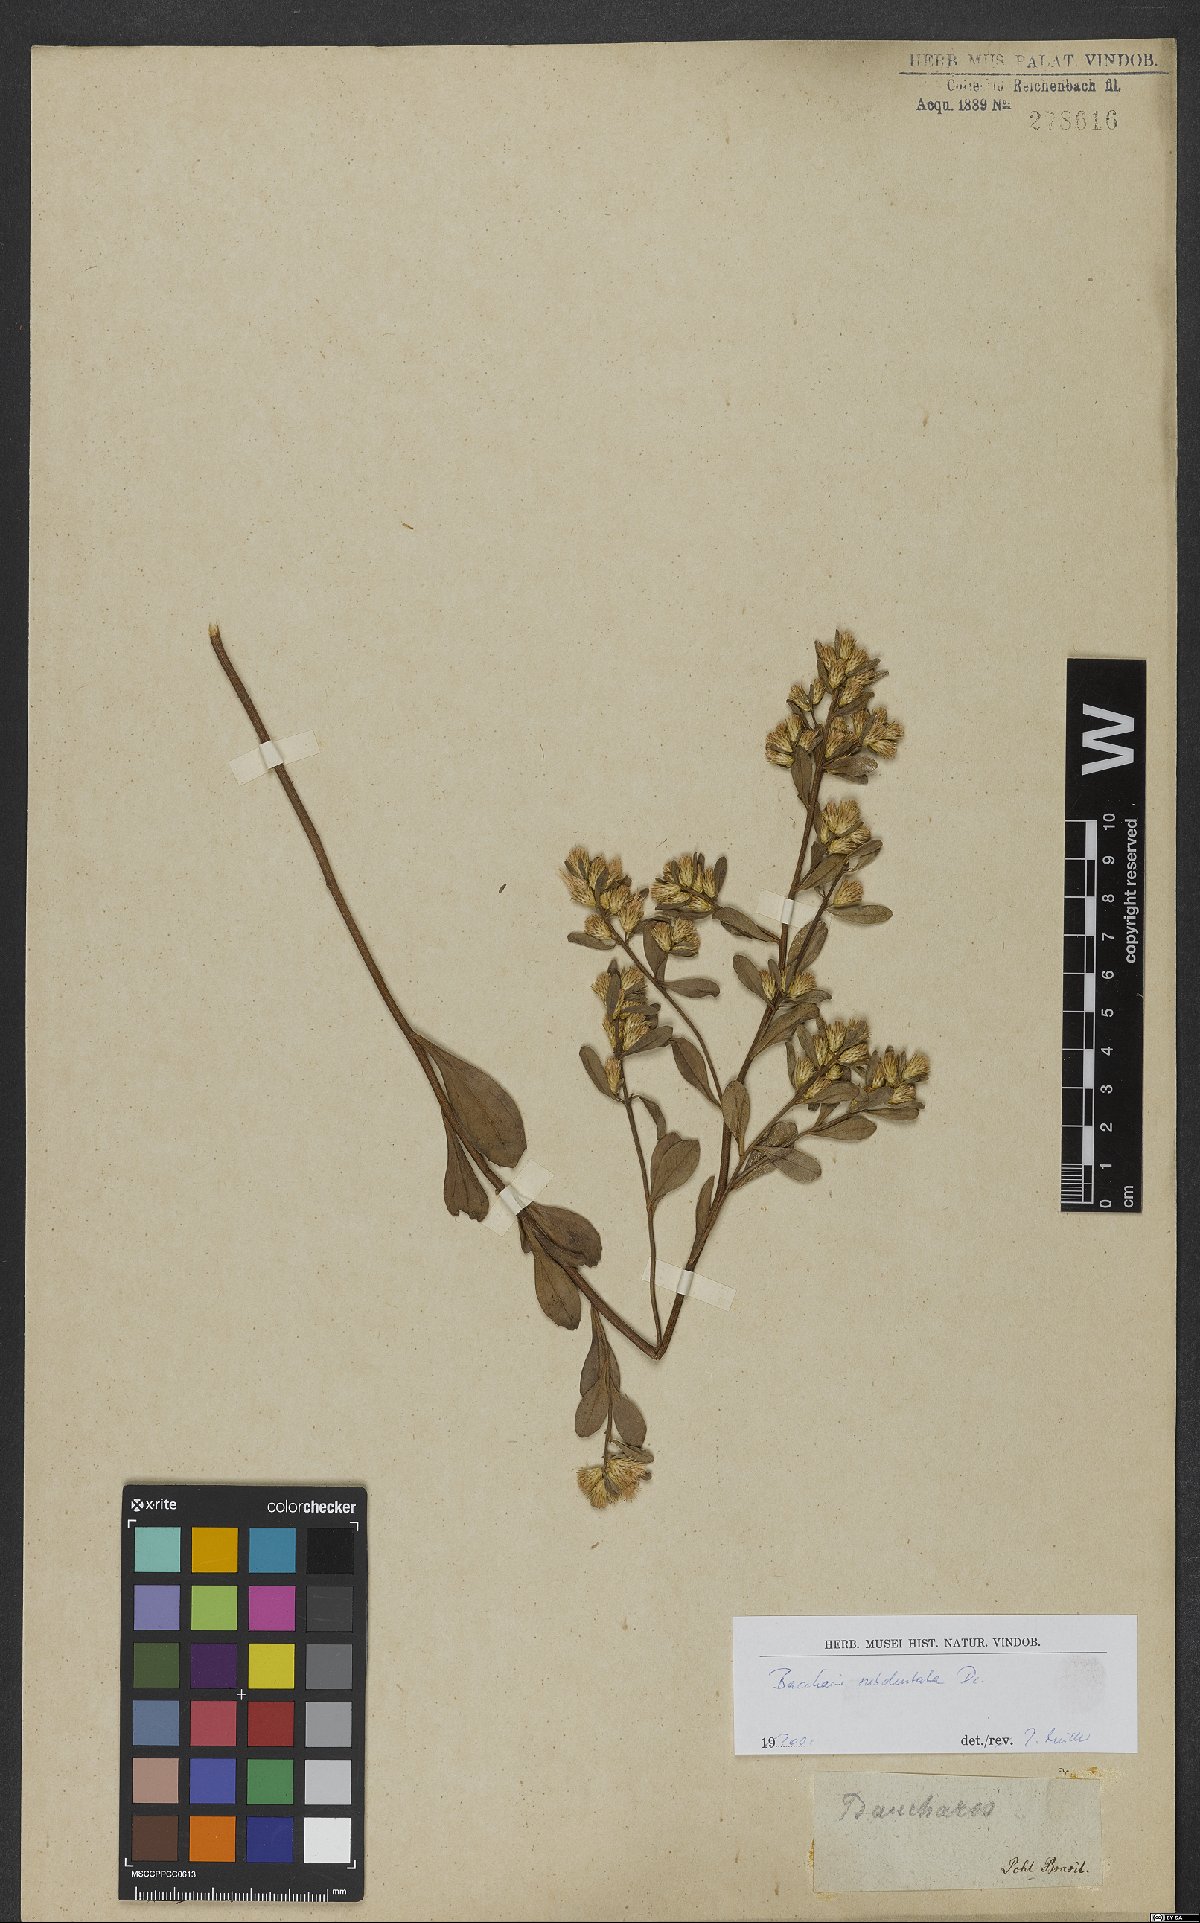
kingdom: Plantae
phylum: Tracheophyta
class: Magnoliopsida
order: Asterales
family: Asteraceae
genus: Baccharis
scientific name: Baccharis subdentata
